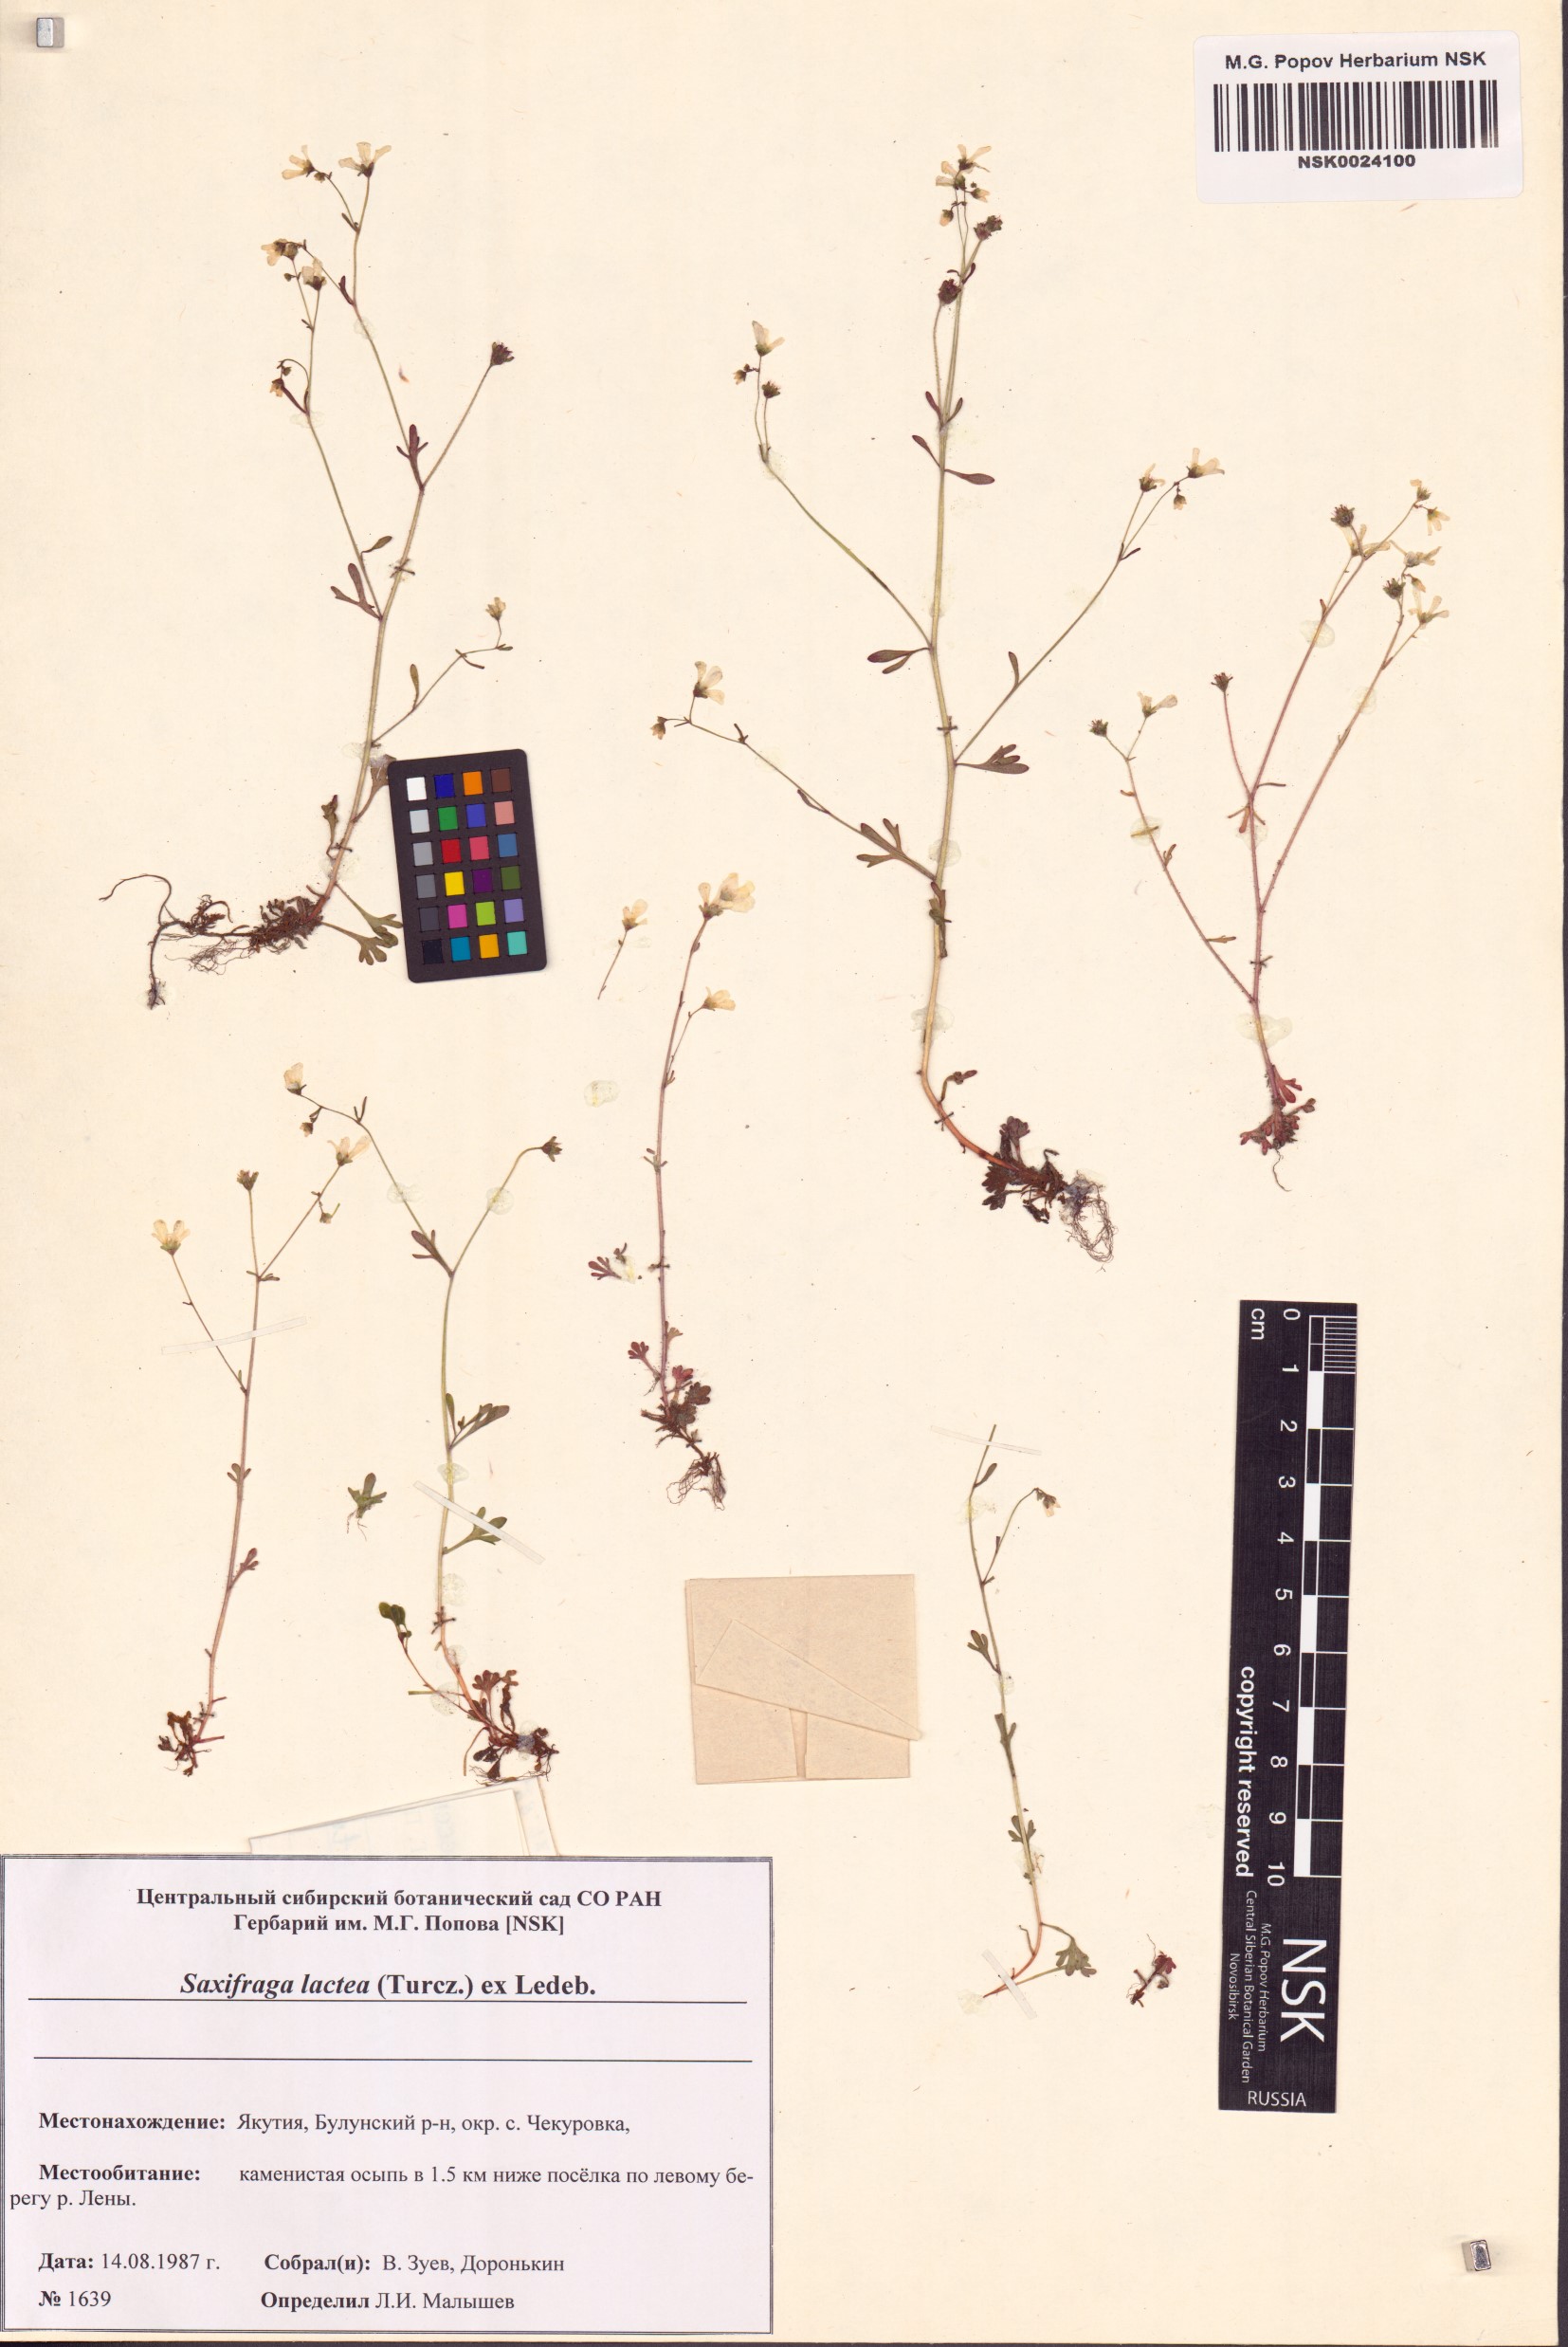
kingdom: Plantae
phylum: Tracheophyta
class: Magnoliopsida
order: Saxifragales
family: Saxifragaceae
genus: Saxifraga
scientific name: Saxifraga lactea
